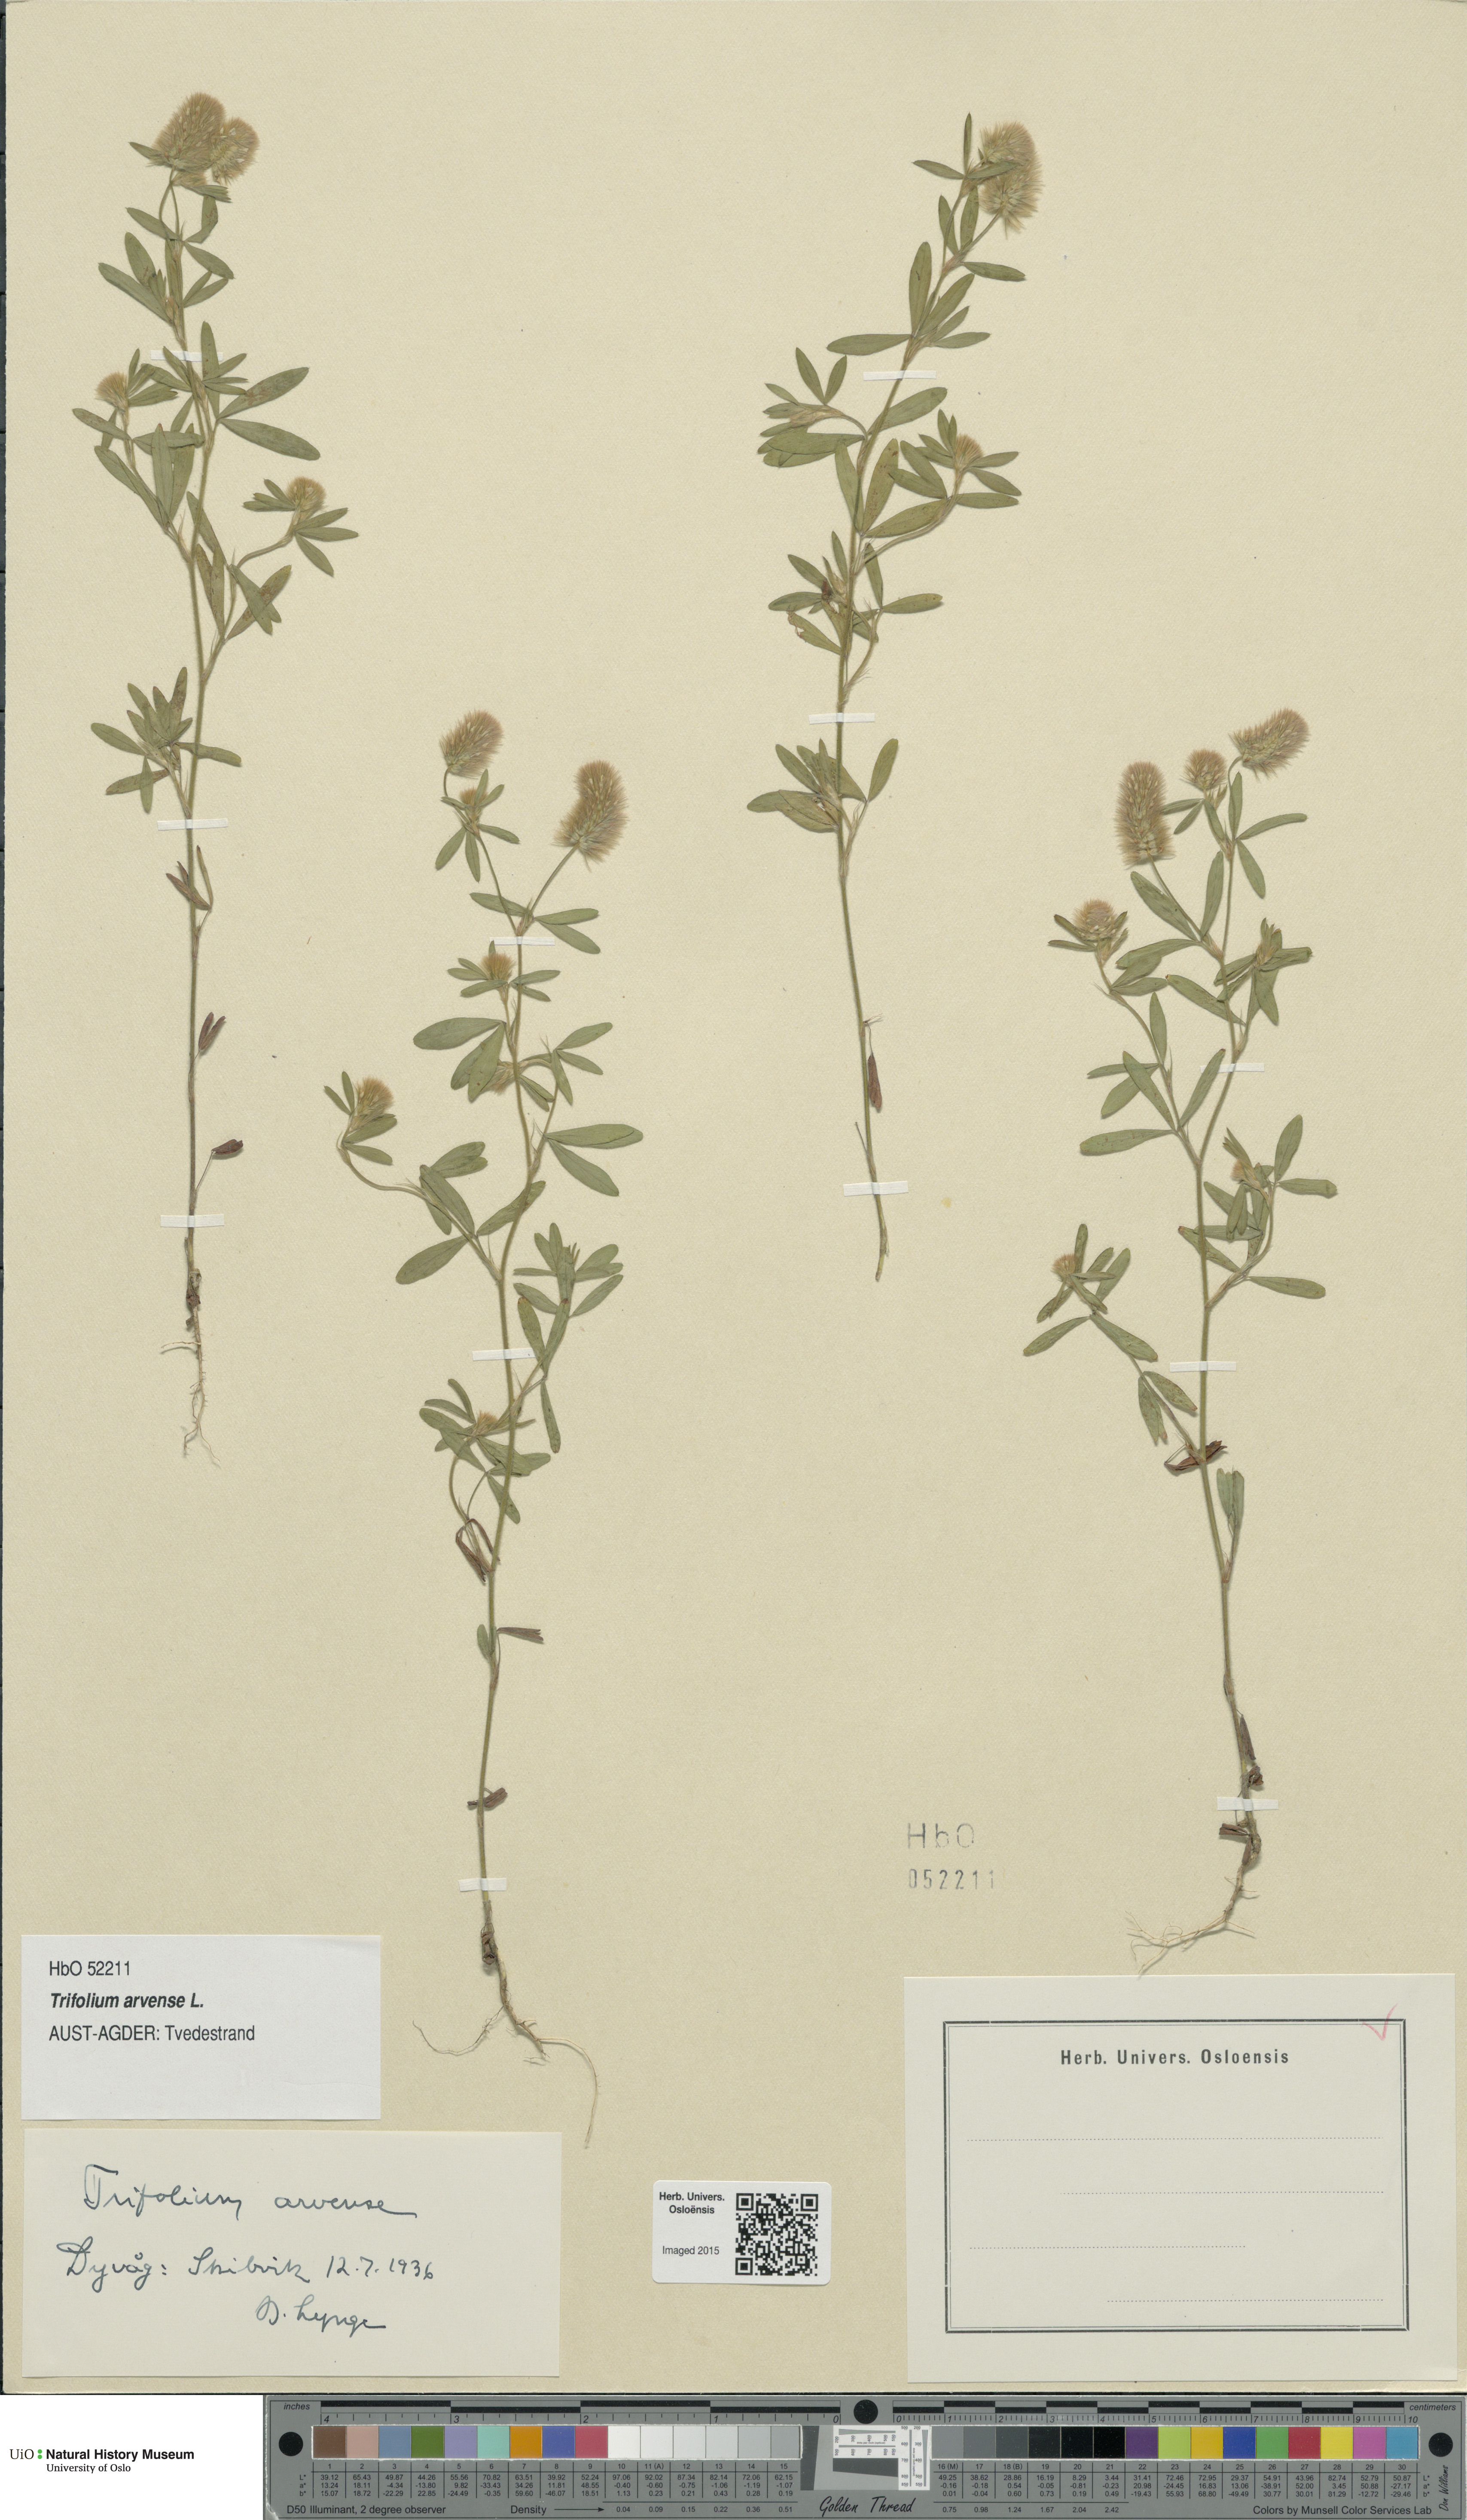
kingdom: Plantae
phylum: Tracheophyta
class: Magnoliopsida
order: Fabales
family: Fabaceae
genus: Trifolium
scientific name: Trifolium arvense
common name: Hare's-foot clover
